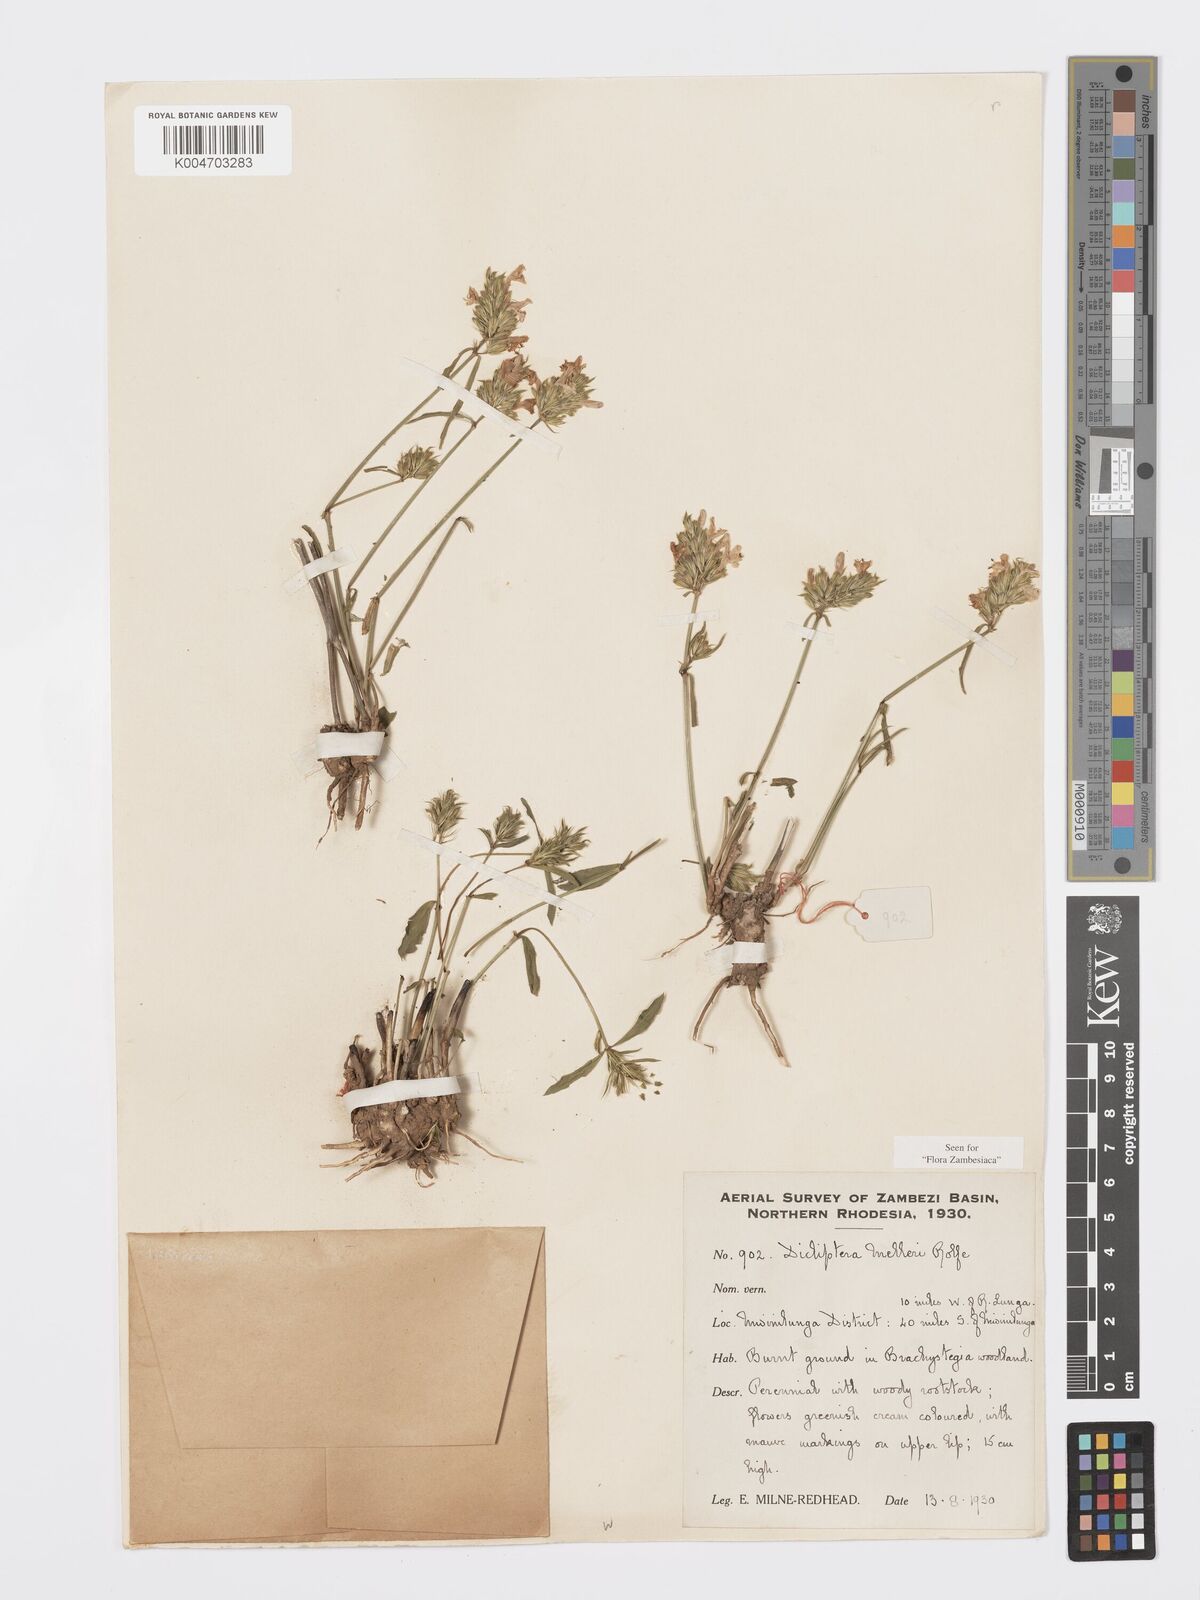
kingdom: Plantae
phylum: Tracheophyta
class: Magnoliopsida
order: Lamiales
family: Acanthaceae
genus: Dicliptera
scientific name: Dicliptera melleri
